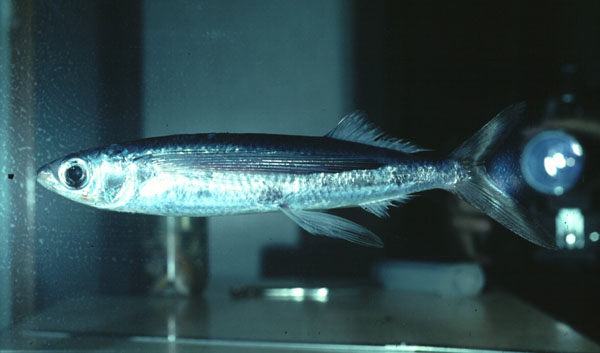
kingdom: Animalia
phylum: Chordata
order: Beloniformes
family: Exocoetidae
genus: Cypselurus
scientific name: Cypselurus angusticeps
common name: Narrowhead flyingfish
